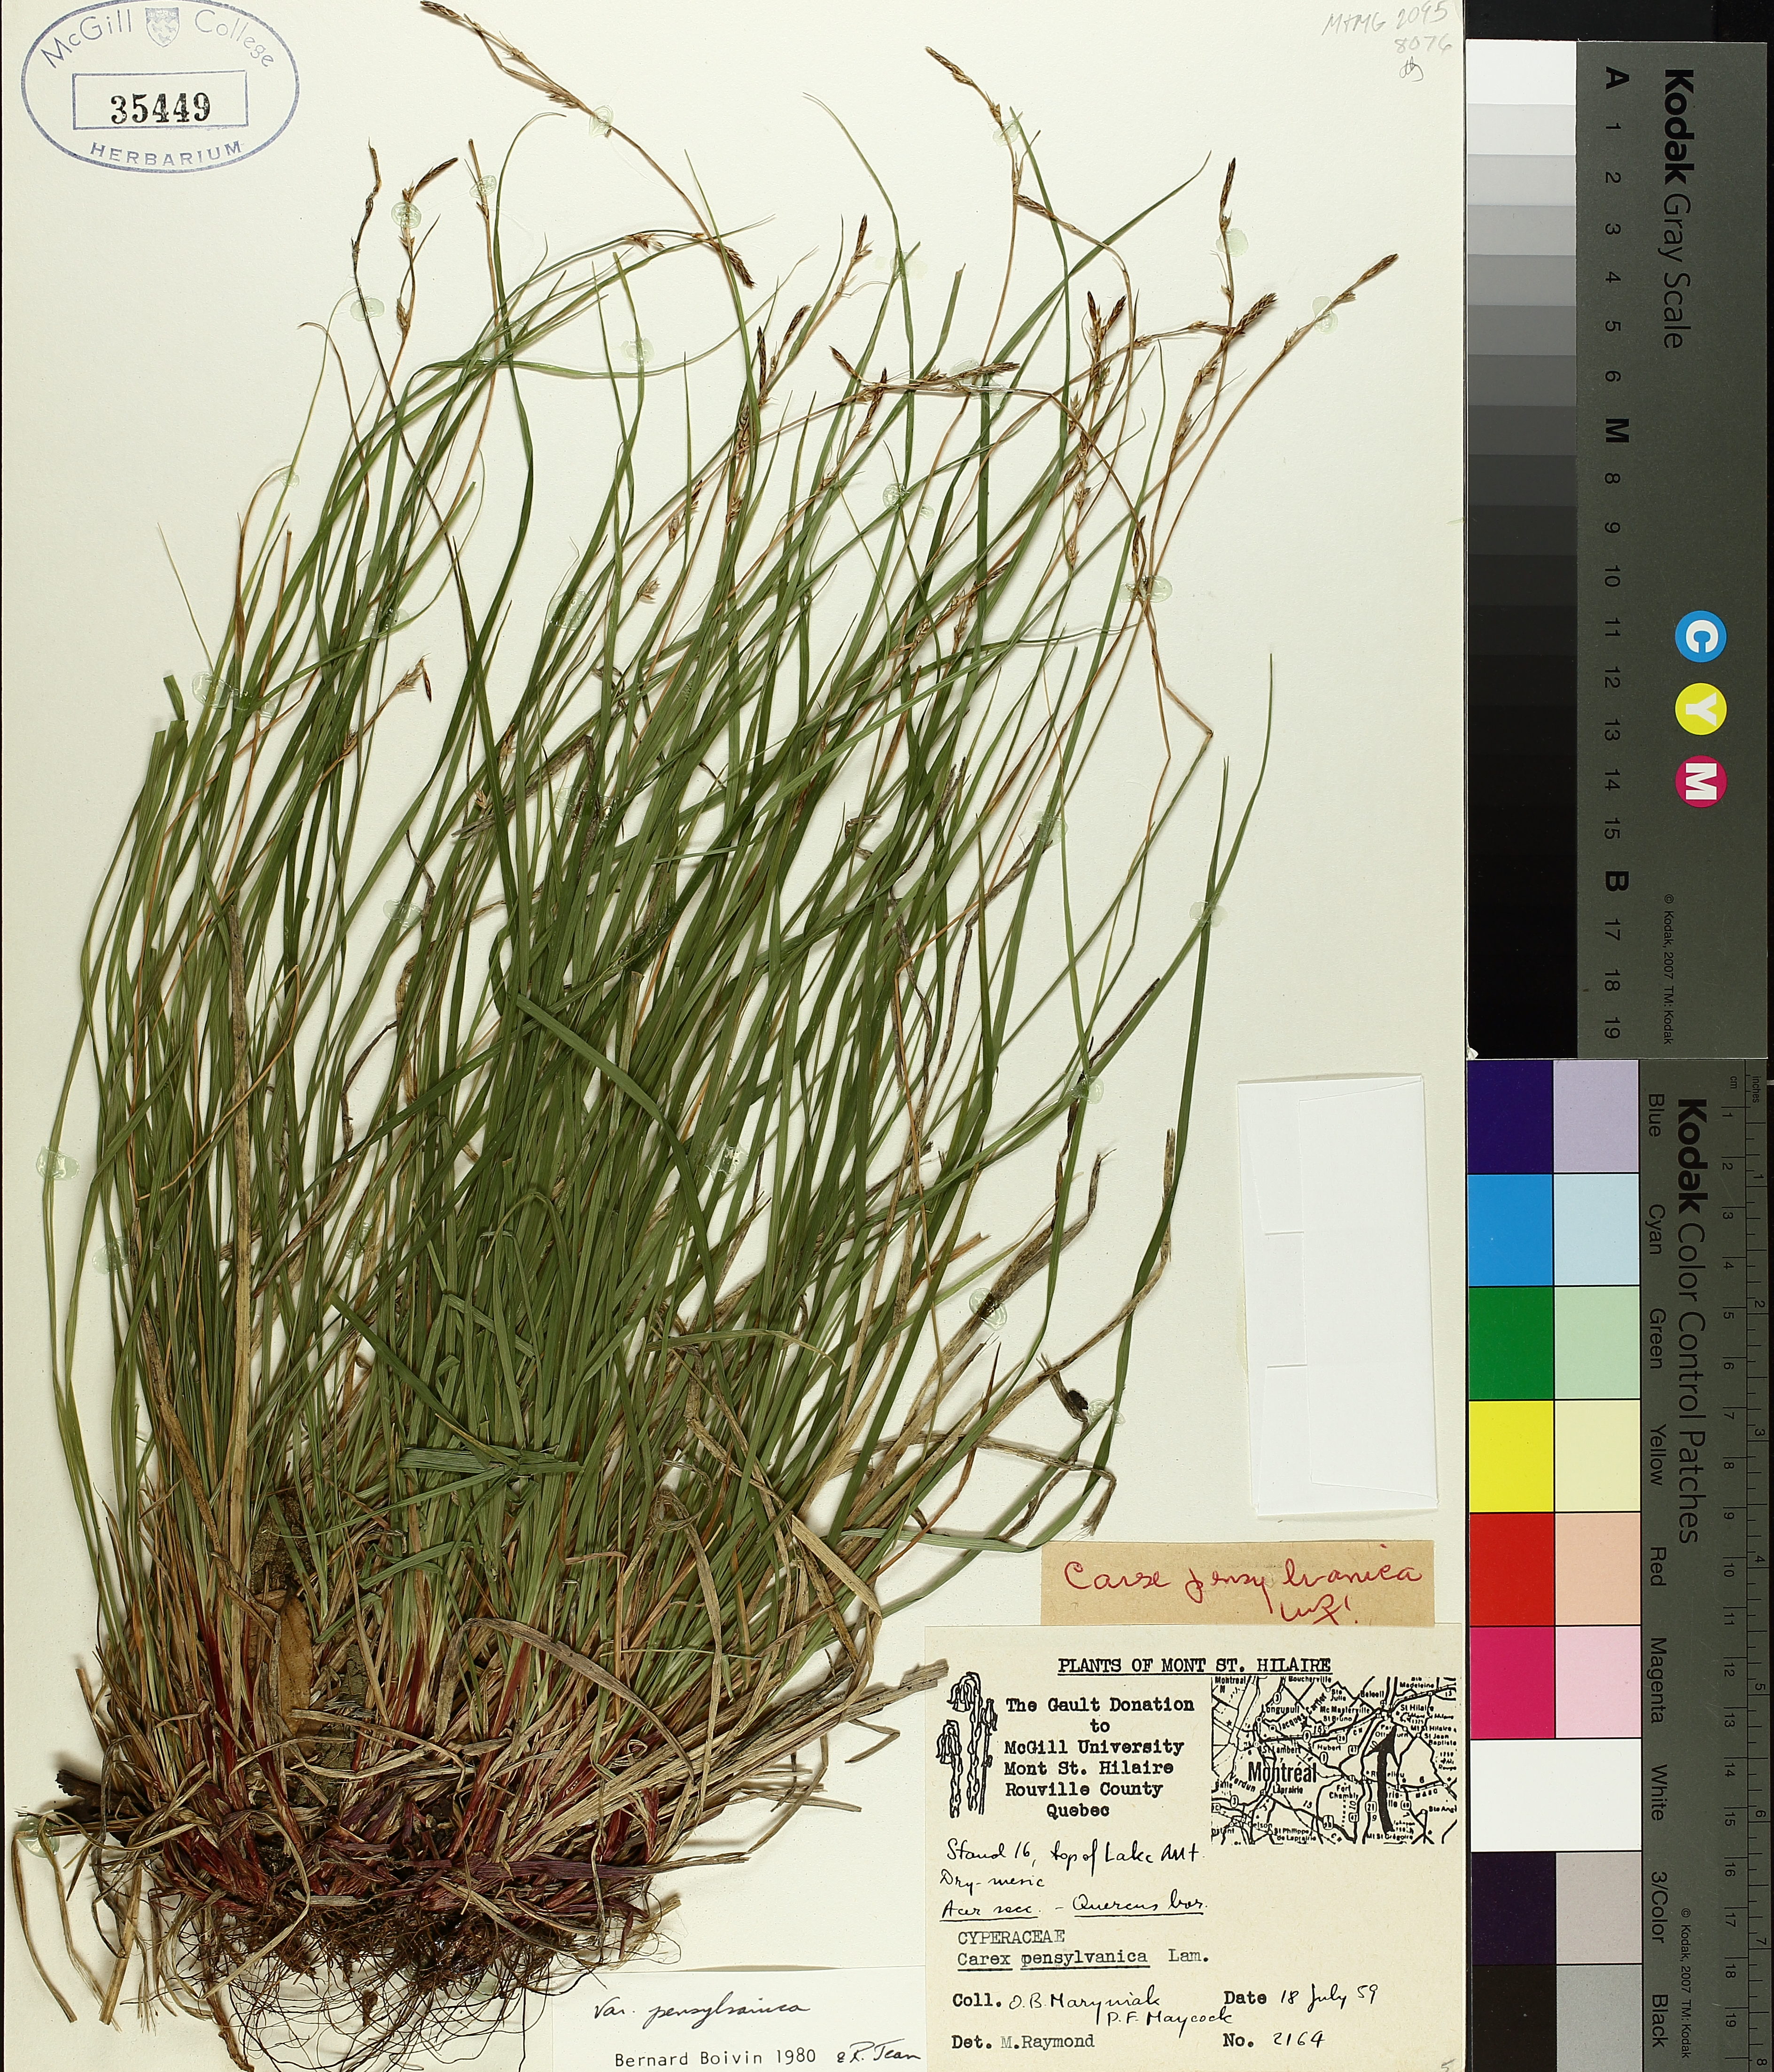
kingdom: Plantae
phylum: Tracheophyta
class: Liliopsida
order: Poales
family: Cyperaceae
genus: Carex
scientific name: Carex pensylvanica
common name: Common oak sedge
